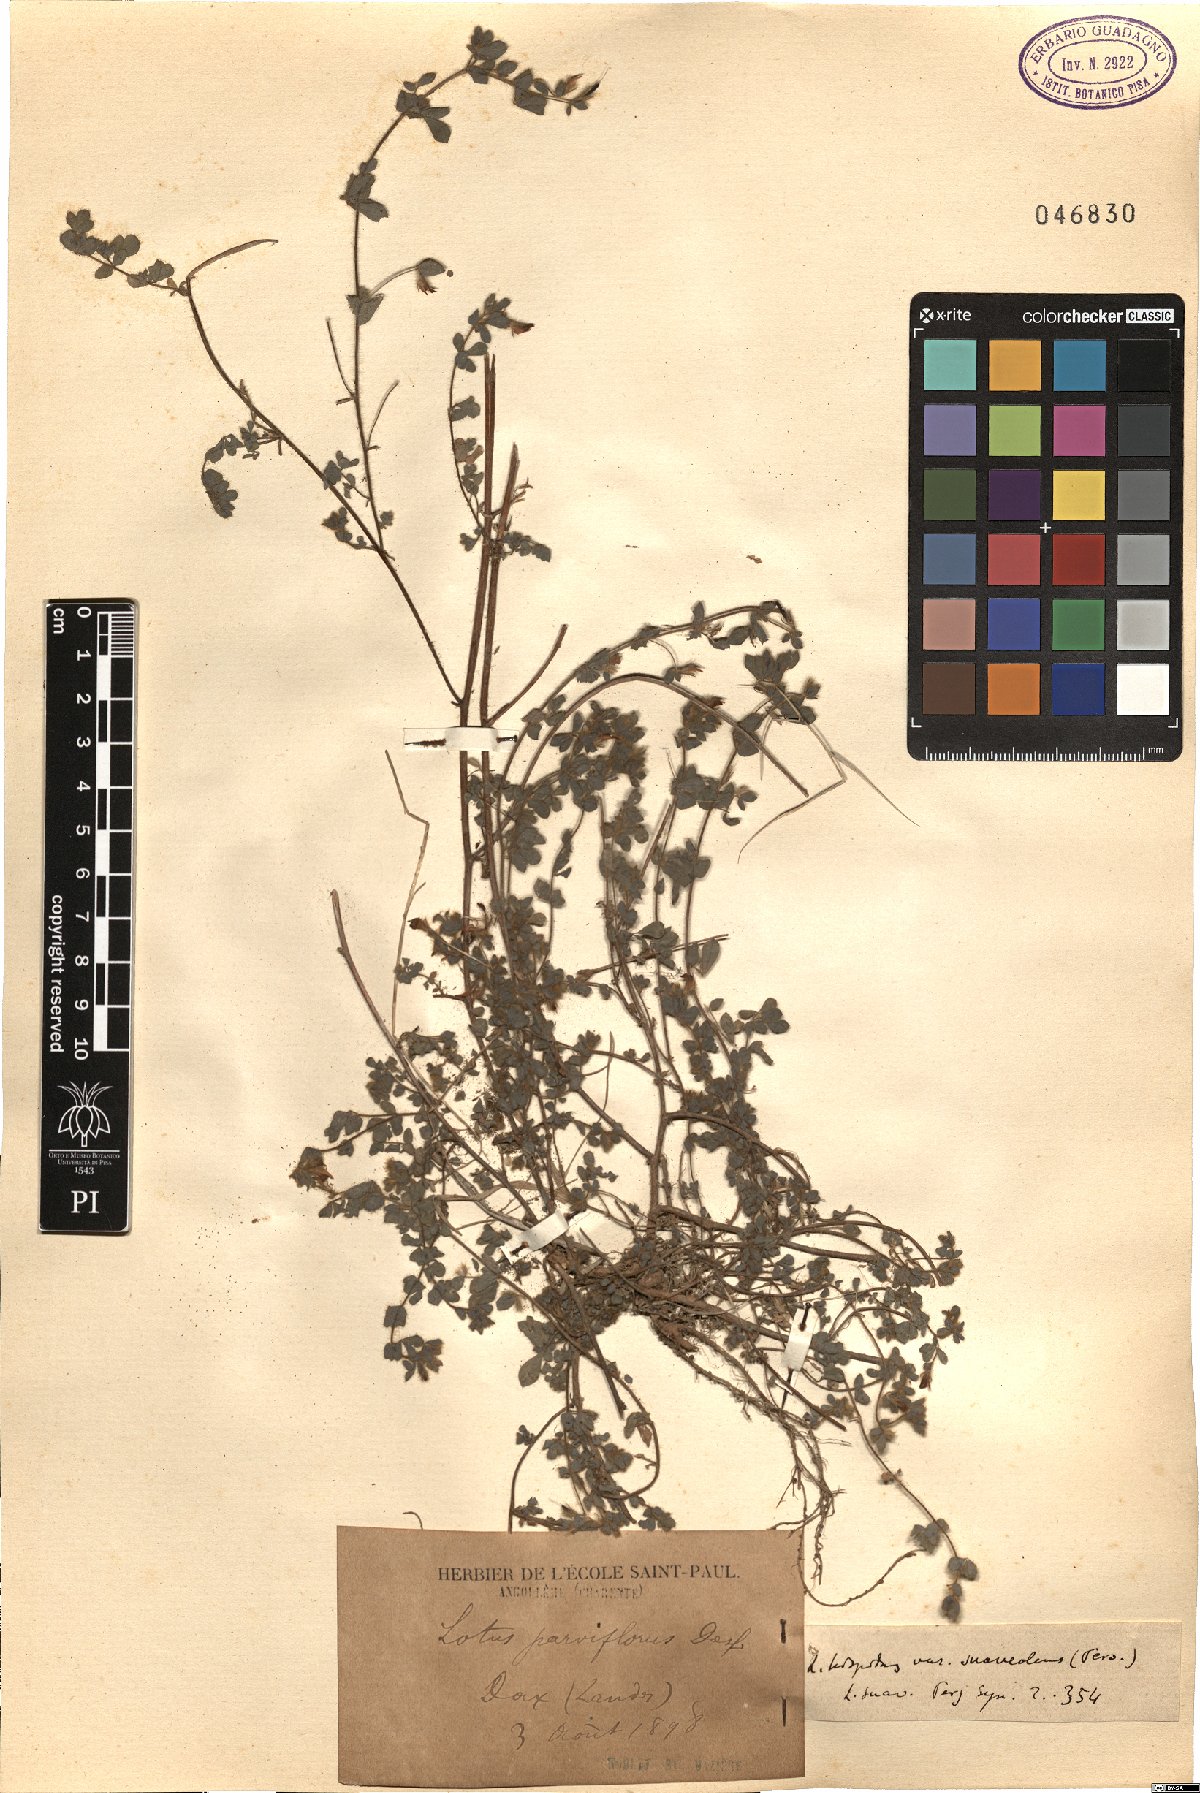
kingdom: Plantae
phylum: Tracheophyta
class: Magnoliopsida
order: Fabales
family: Fabaceae
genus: Lotus
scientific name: Lotus parviflorus
